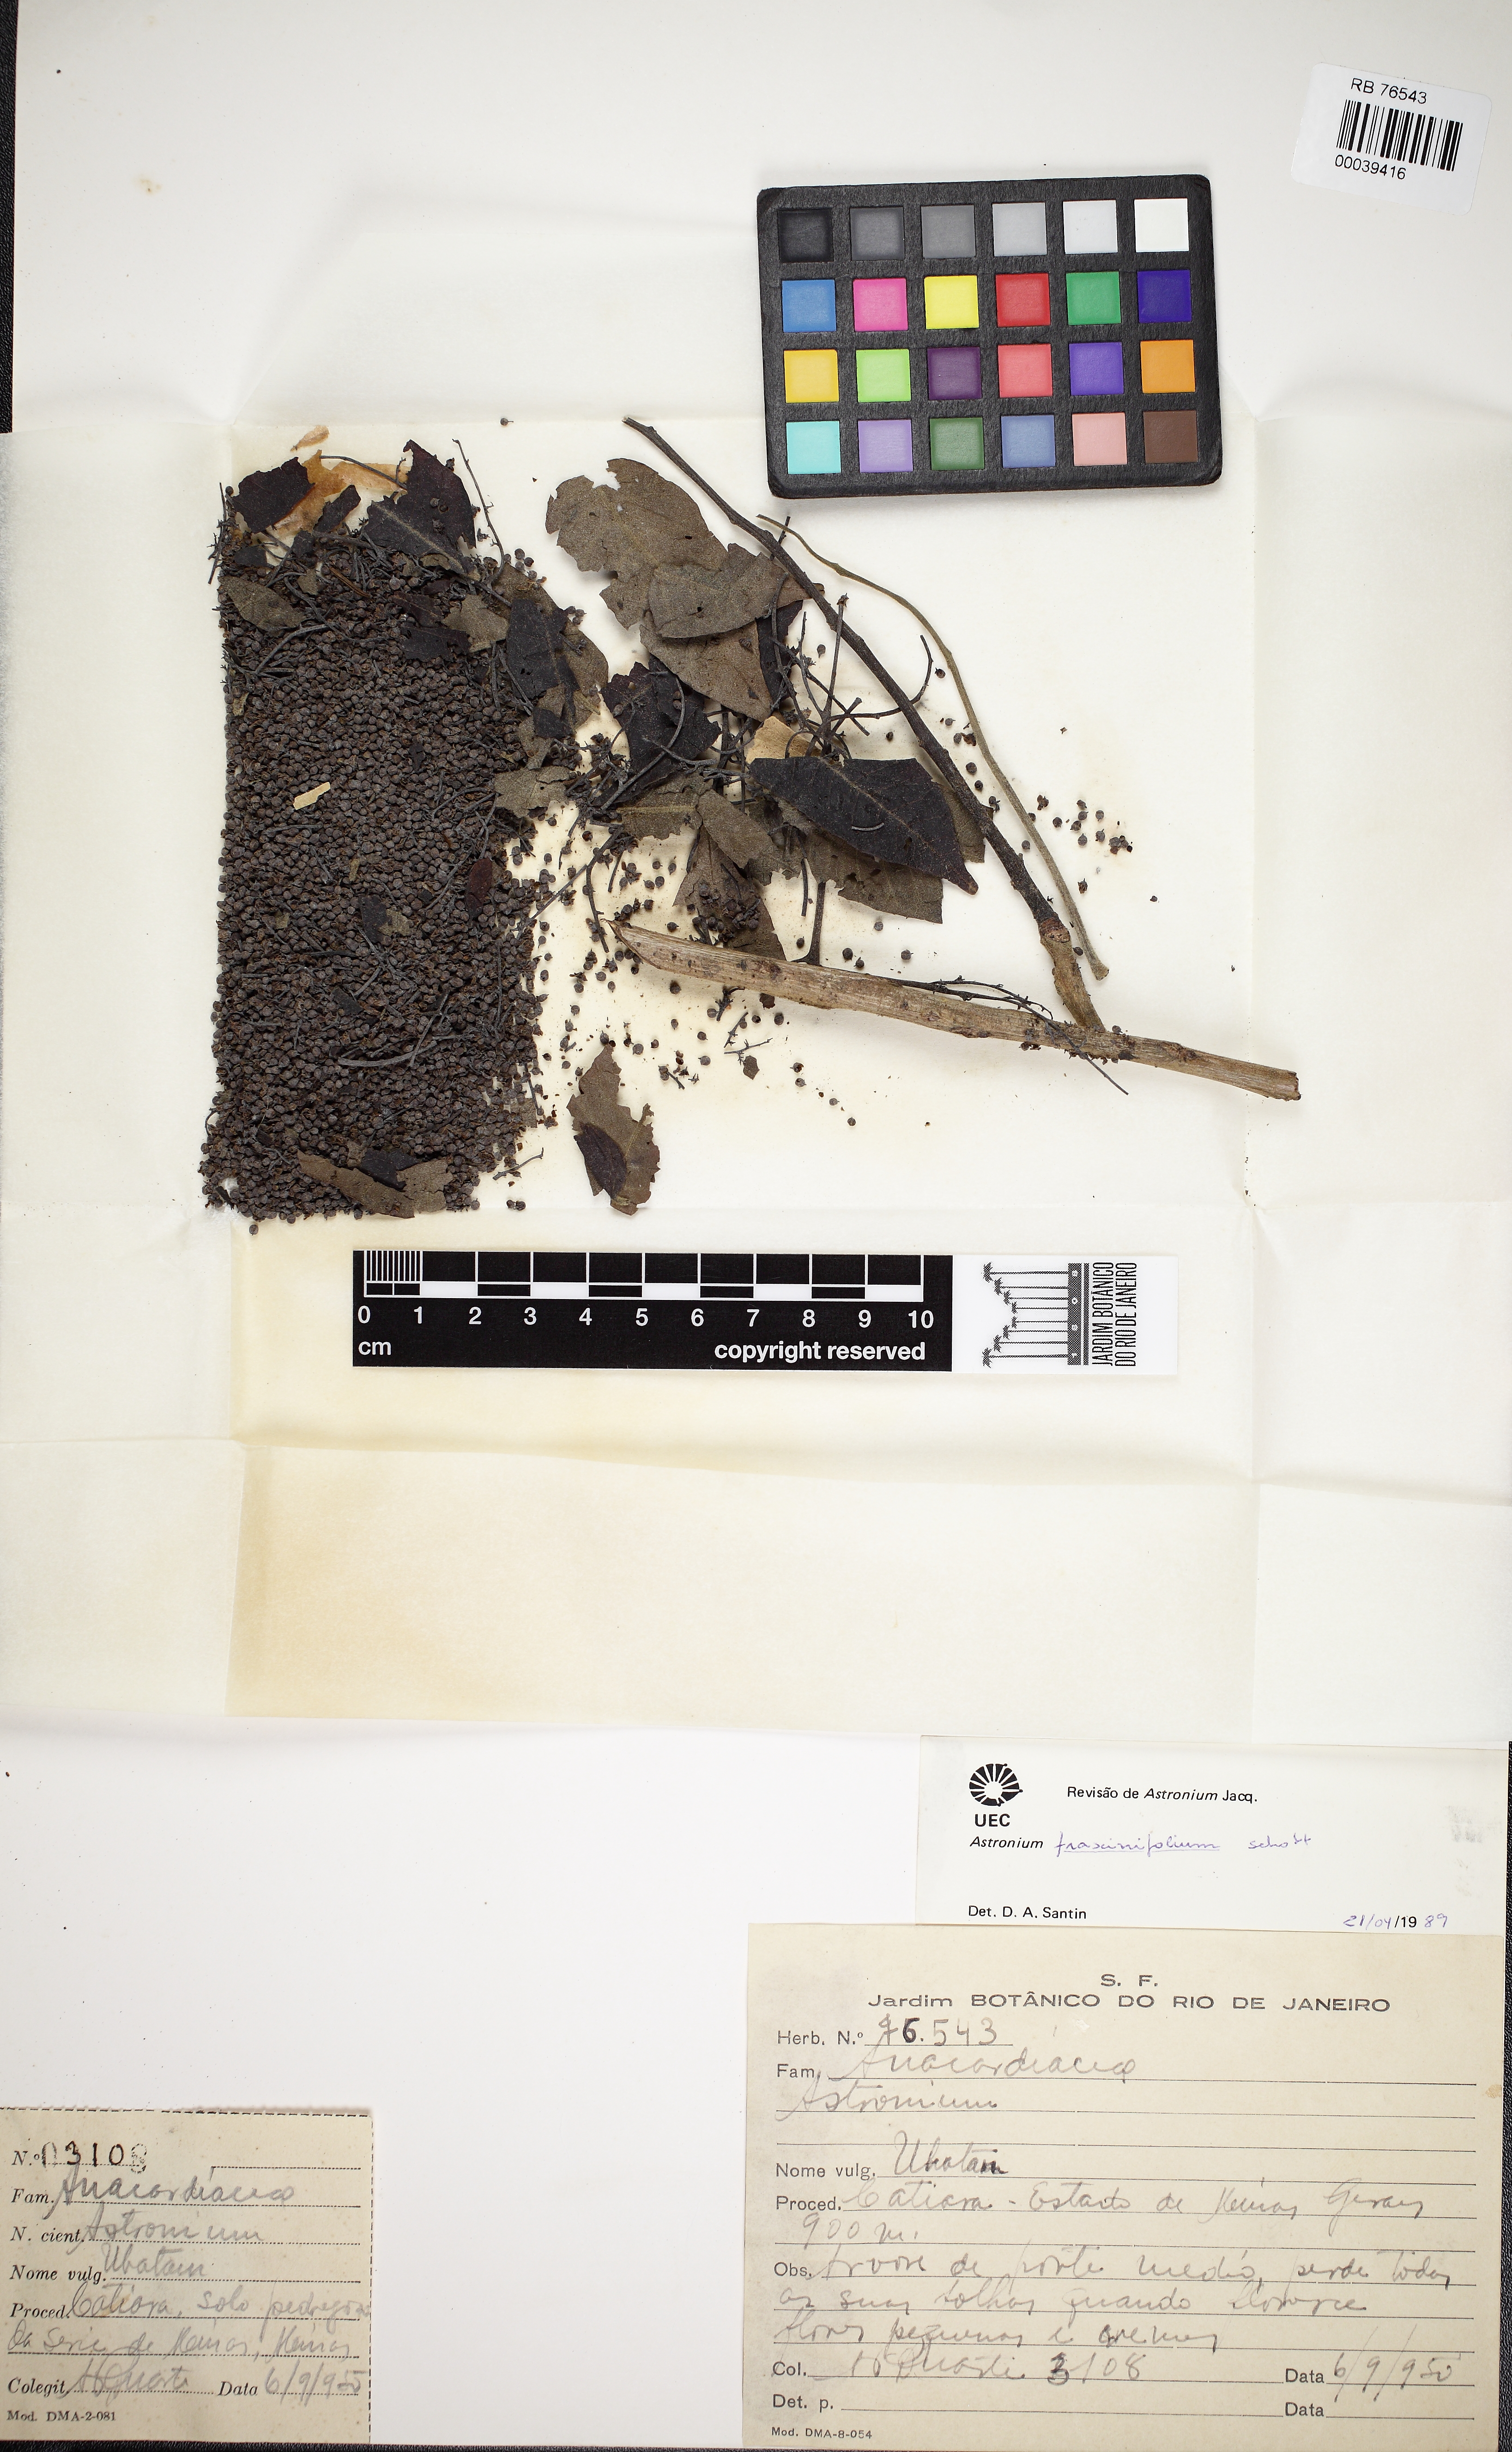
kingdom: Plantae
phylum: Tracheophyta
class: Magnoliopsida
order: Sapindales
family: Anacardiaceae
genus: Astronium
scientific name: Astronium
